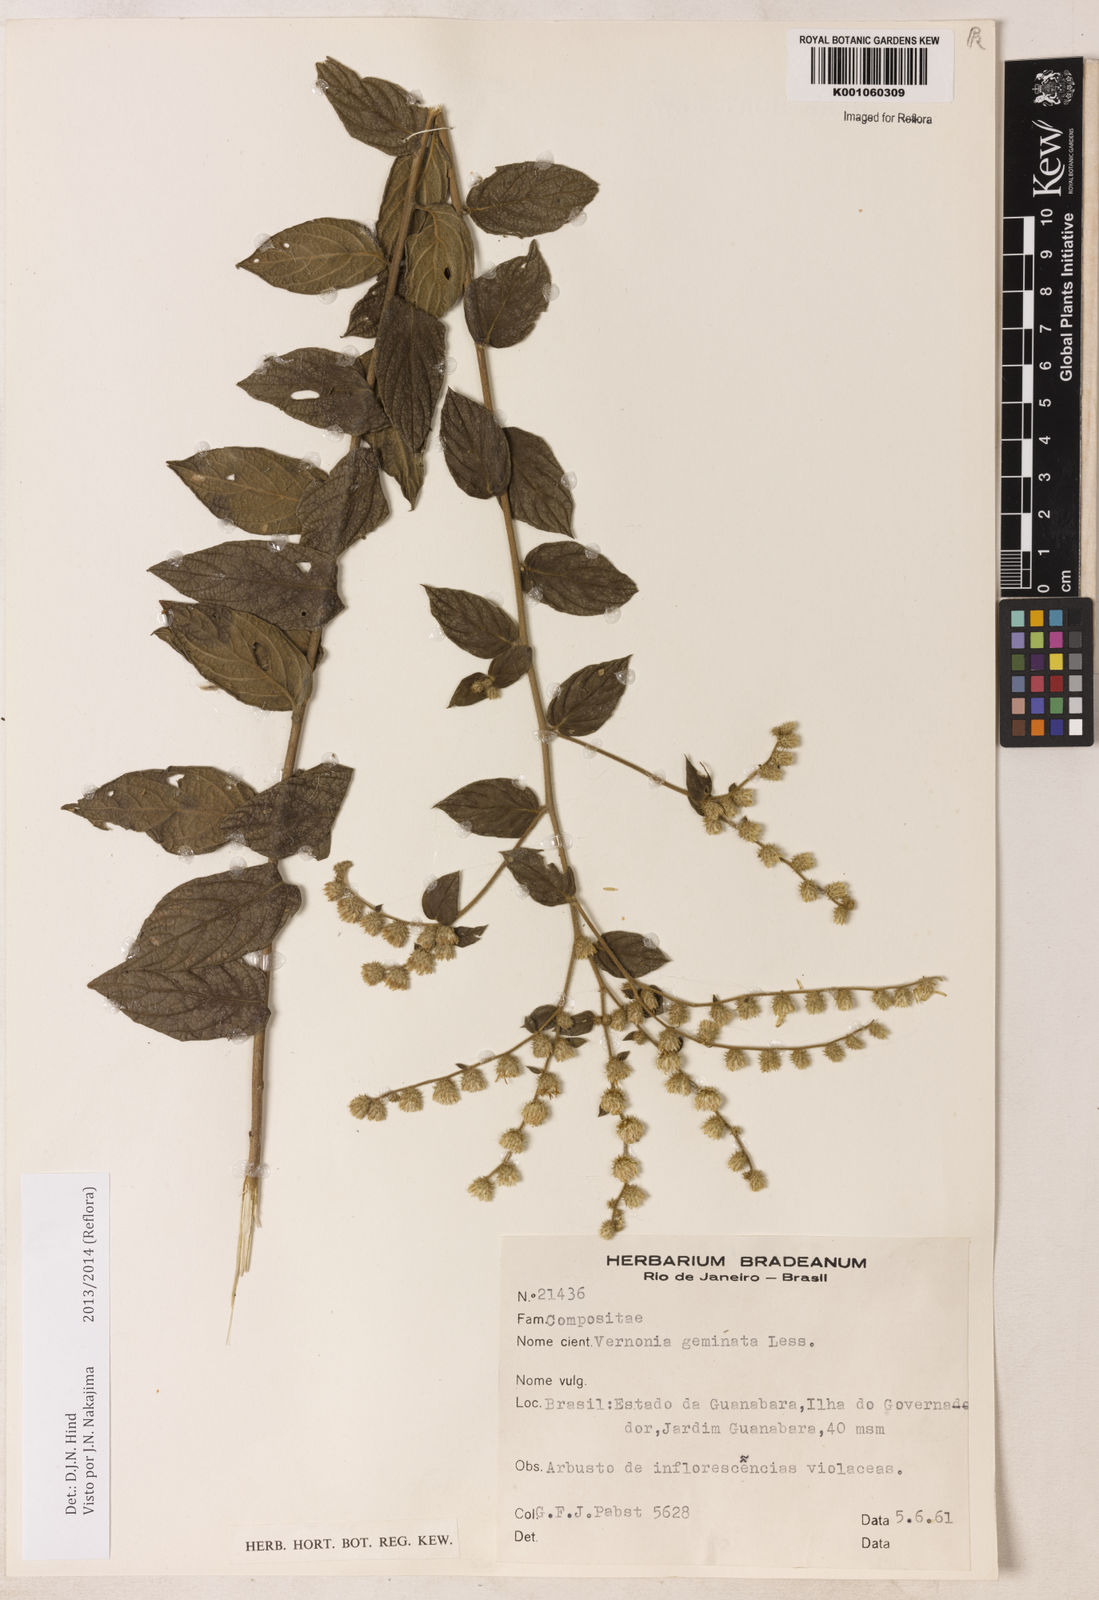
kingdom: Plantae
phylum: Tracheophyta
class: Magnoliopsida
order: Asterales
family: Asteraceae
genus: Lepidaploa
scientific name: Lepidaploa canescens
